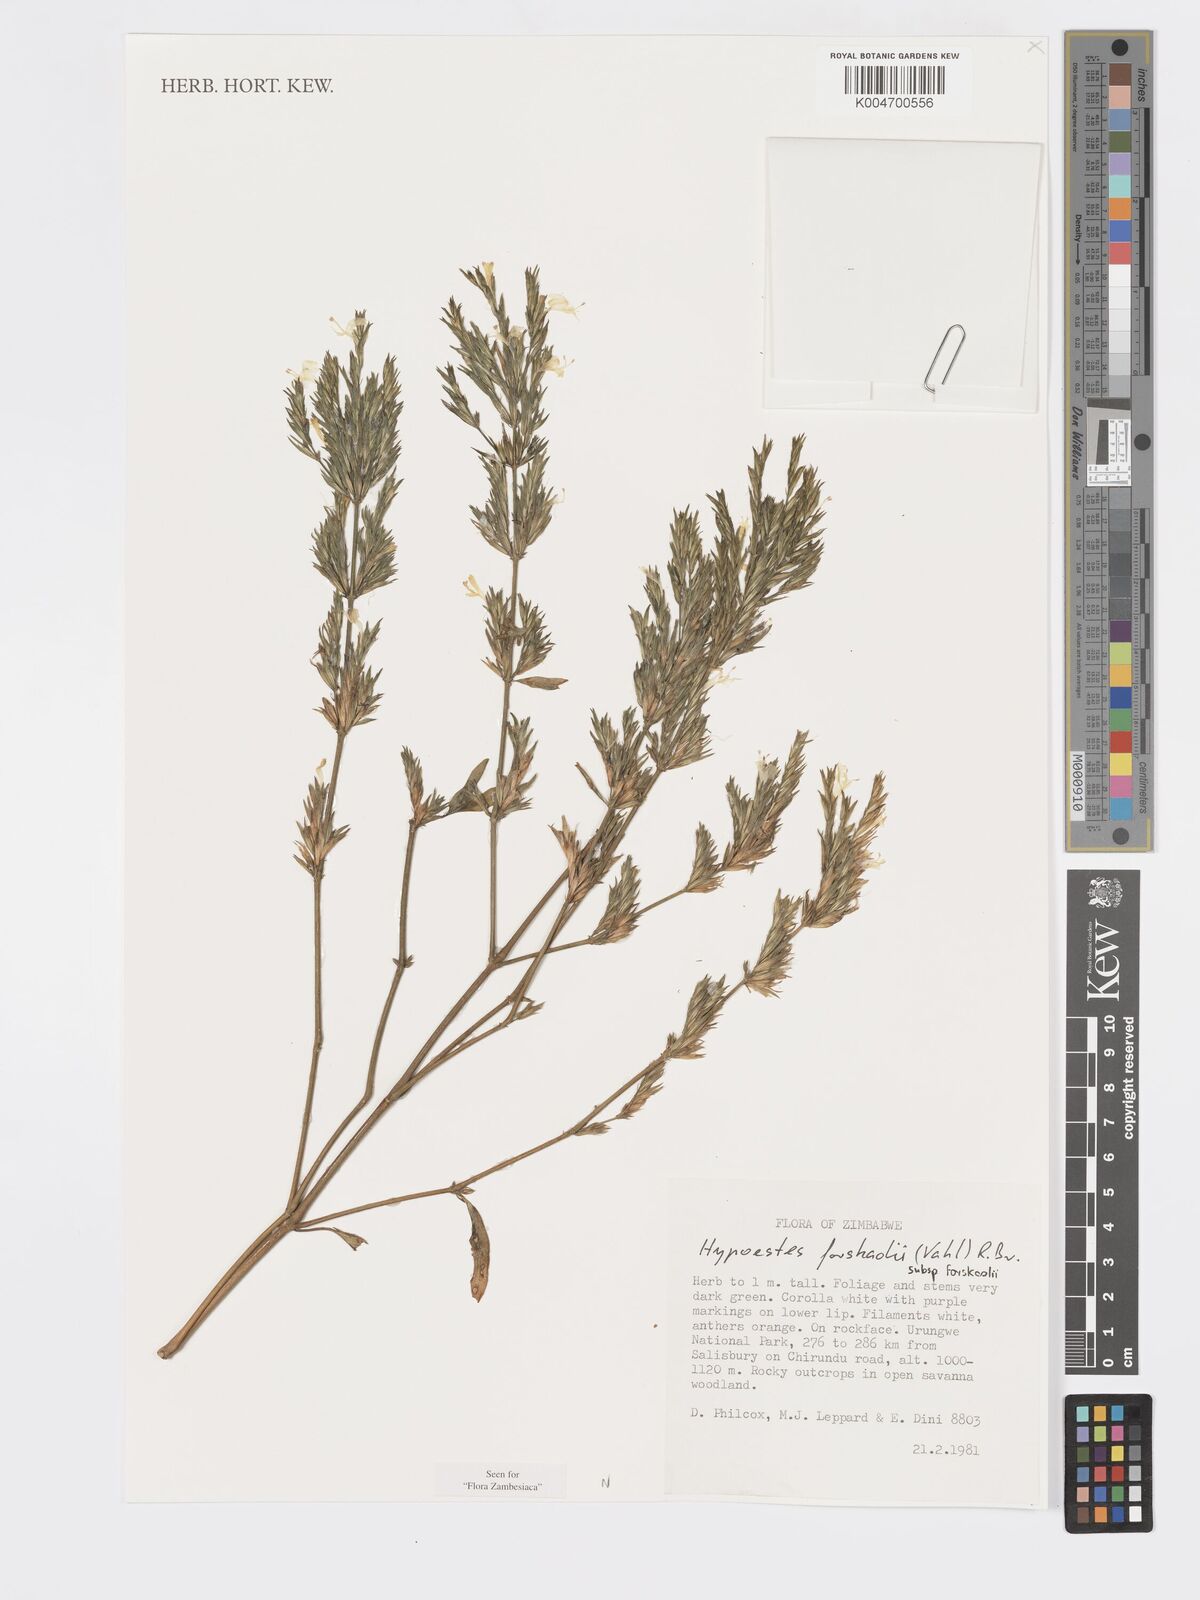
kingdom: Plantae
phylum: Tracheophyta
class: Magnoliopsida
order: Lamiales
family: Acanthaceae
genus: Hypoestes
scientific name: Hypoestes forskaolii
